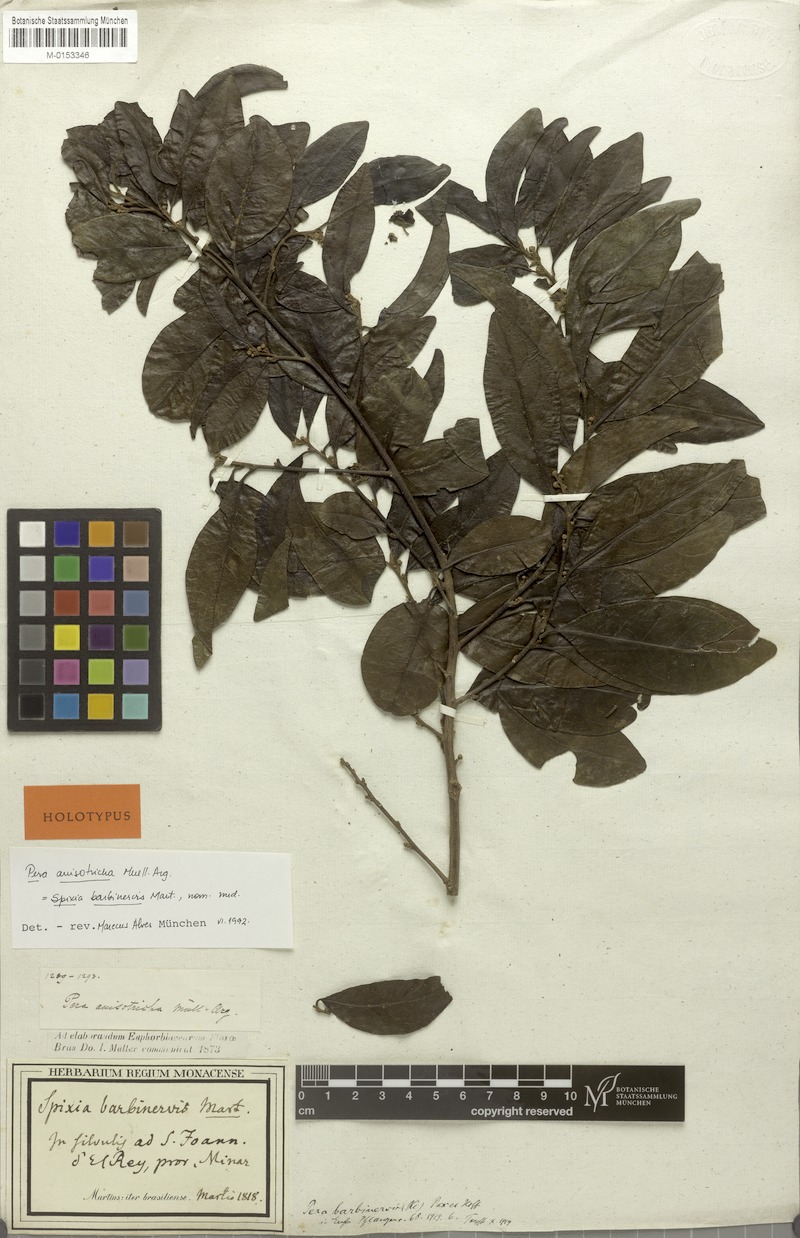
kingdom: Plantae
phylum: Tracheophyta
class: Magnoliopsida
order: Malpighiales
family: Peraceae
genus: Pera
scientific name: Pera anisotricha
